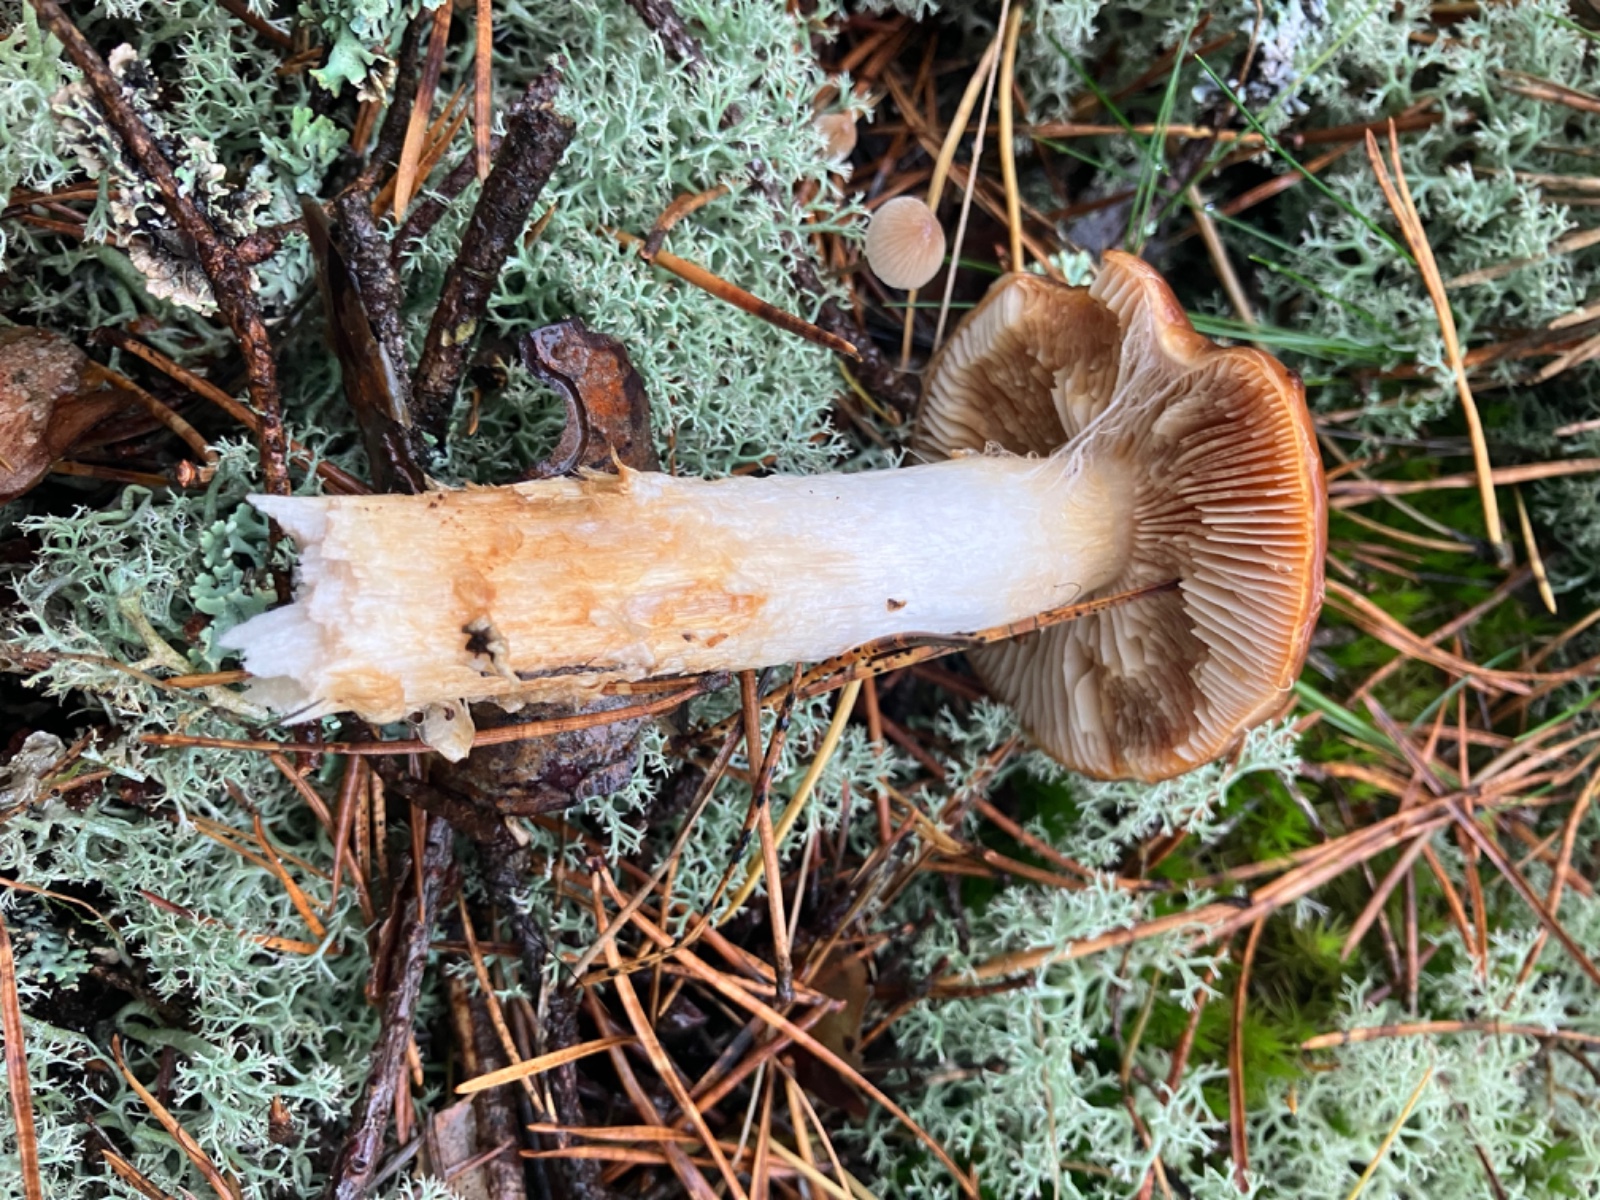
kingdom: Fungi
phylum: Basidiomycota
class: Agaricomycetes
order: Agaricales
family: Cortinariaceae
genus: Cortinarius
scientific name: Cortinarius mucosus
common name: kastaniebrun slørhat
